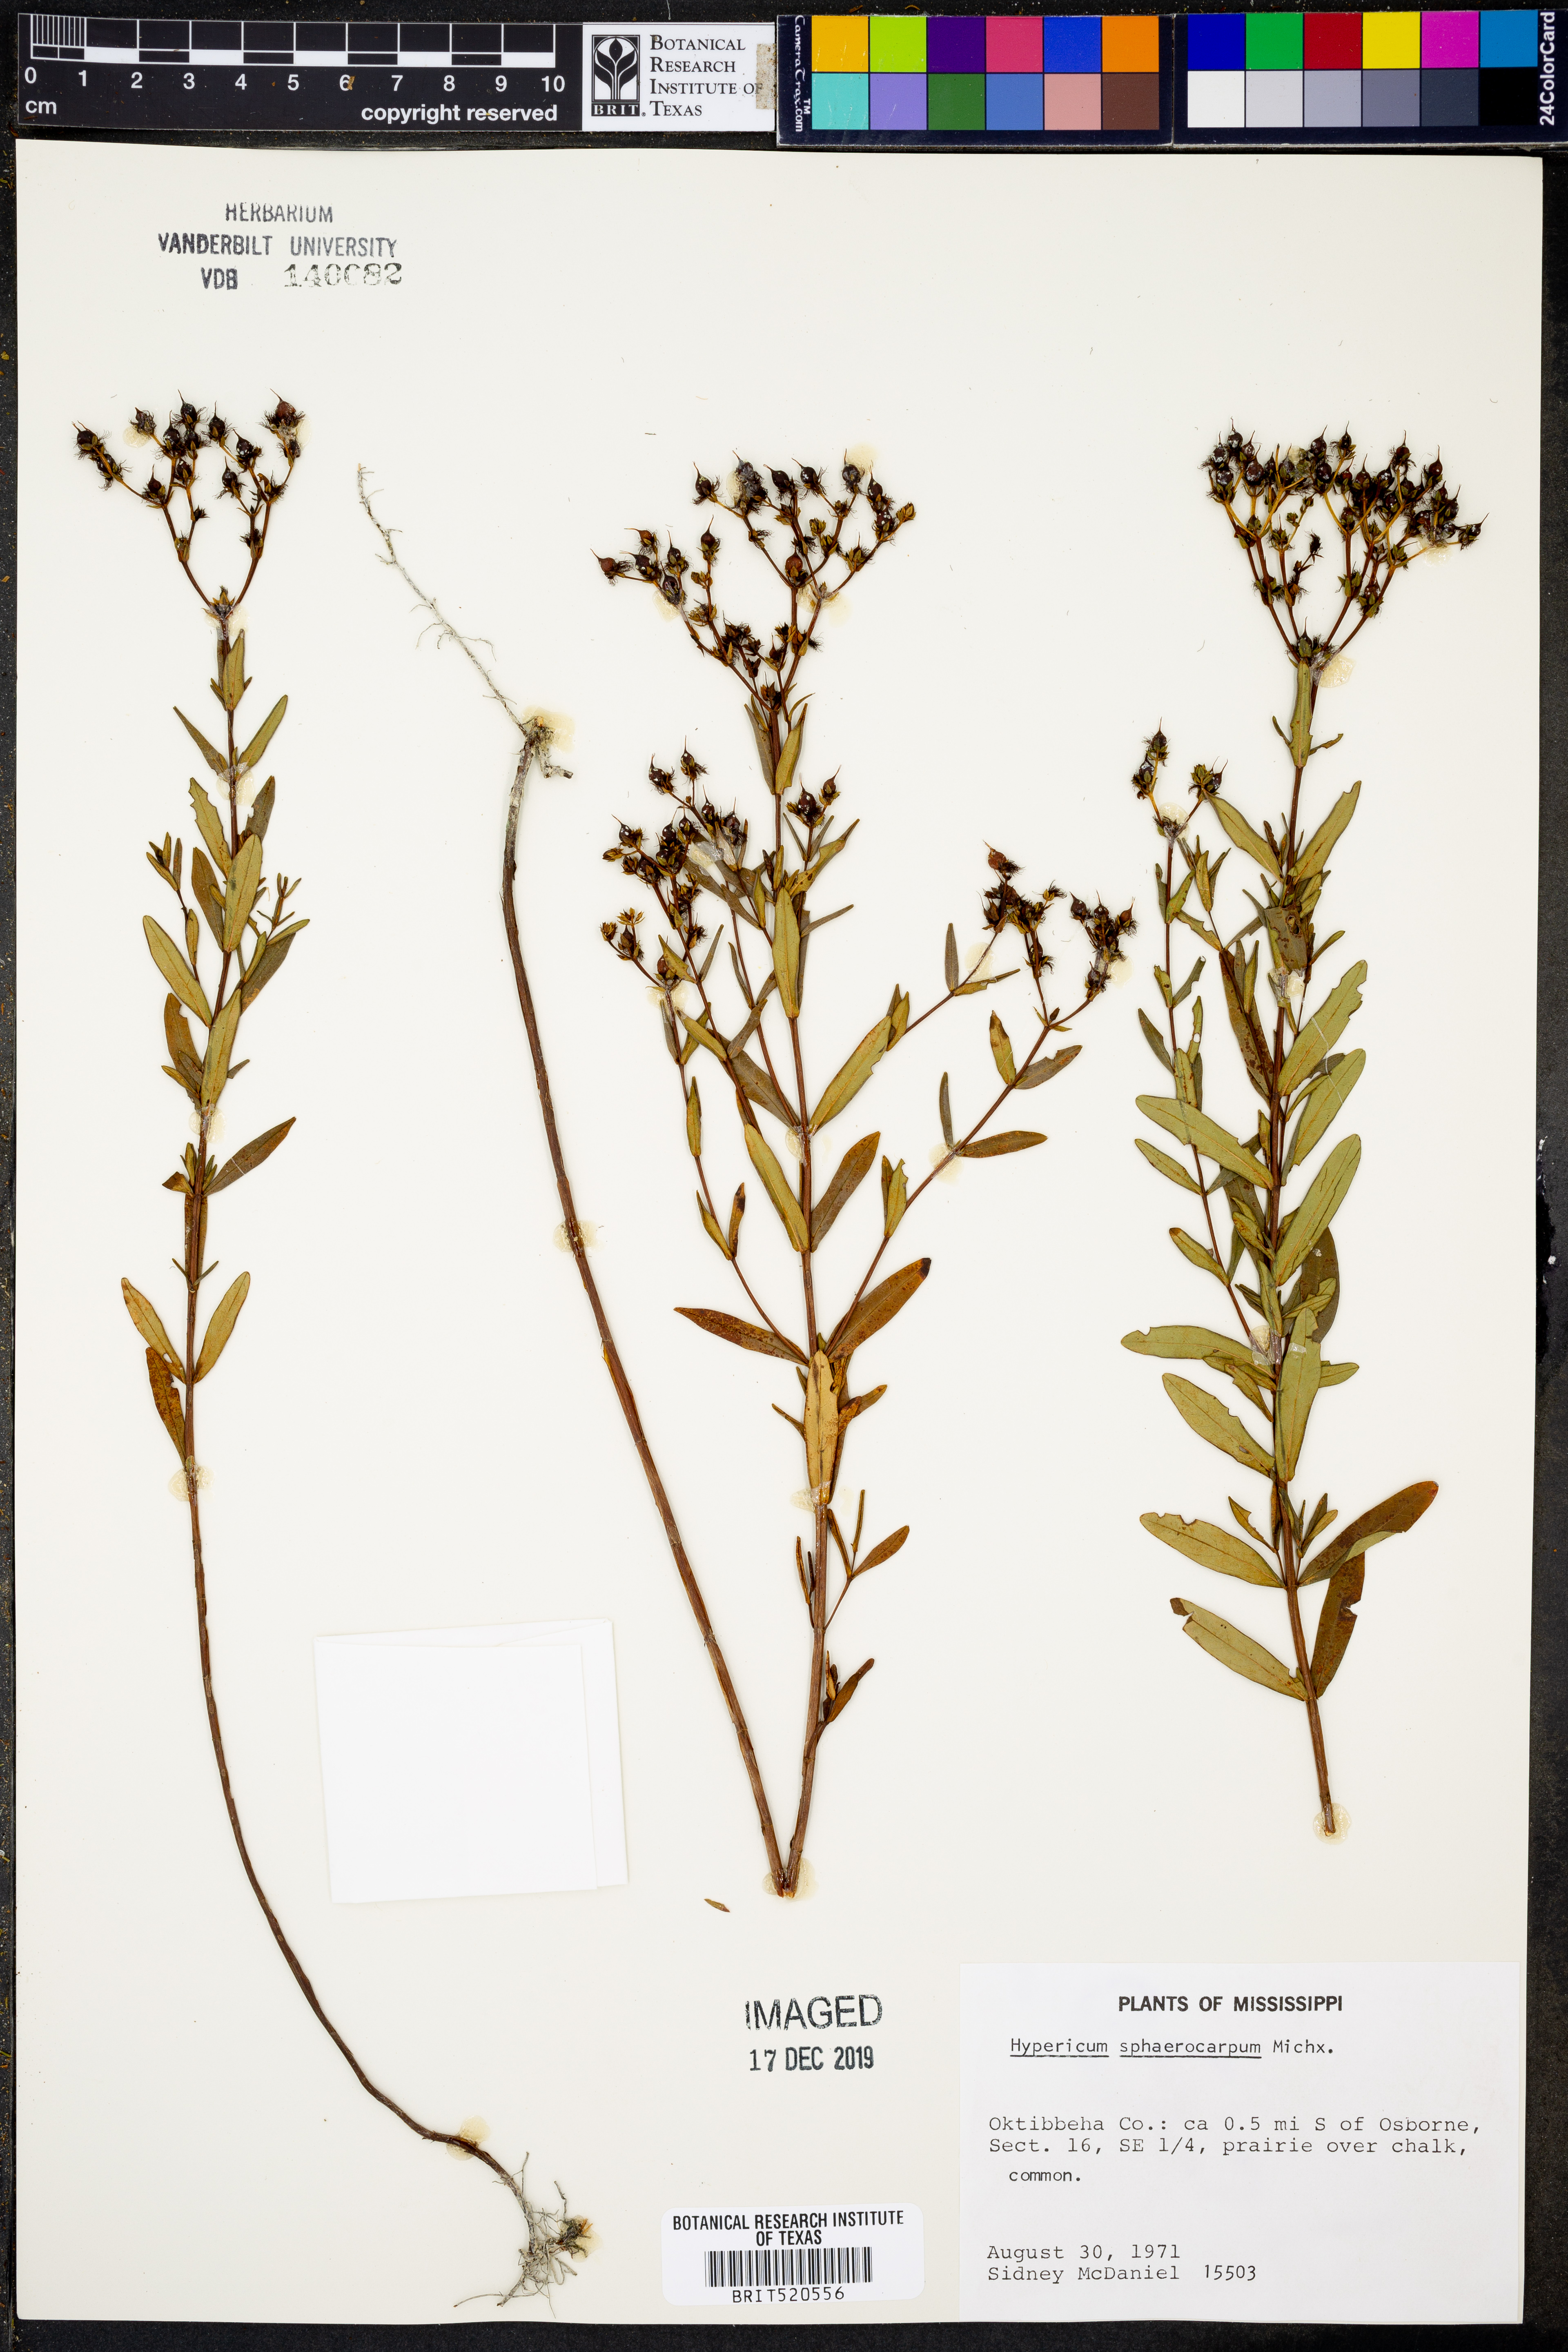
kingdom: Plantae
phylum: Tracheophyta
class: Magnoliopsida
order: Malpighiales
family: Hypericaceae
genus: Hypericum
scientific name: Hypericum sphaerocarpum
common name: Round-fruited st. john's-wort
